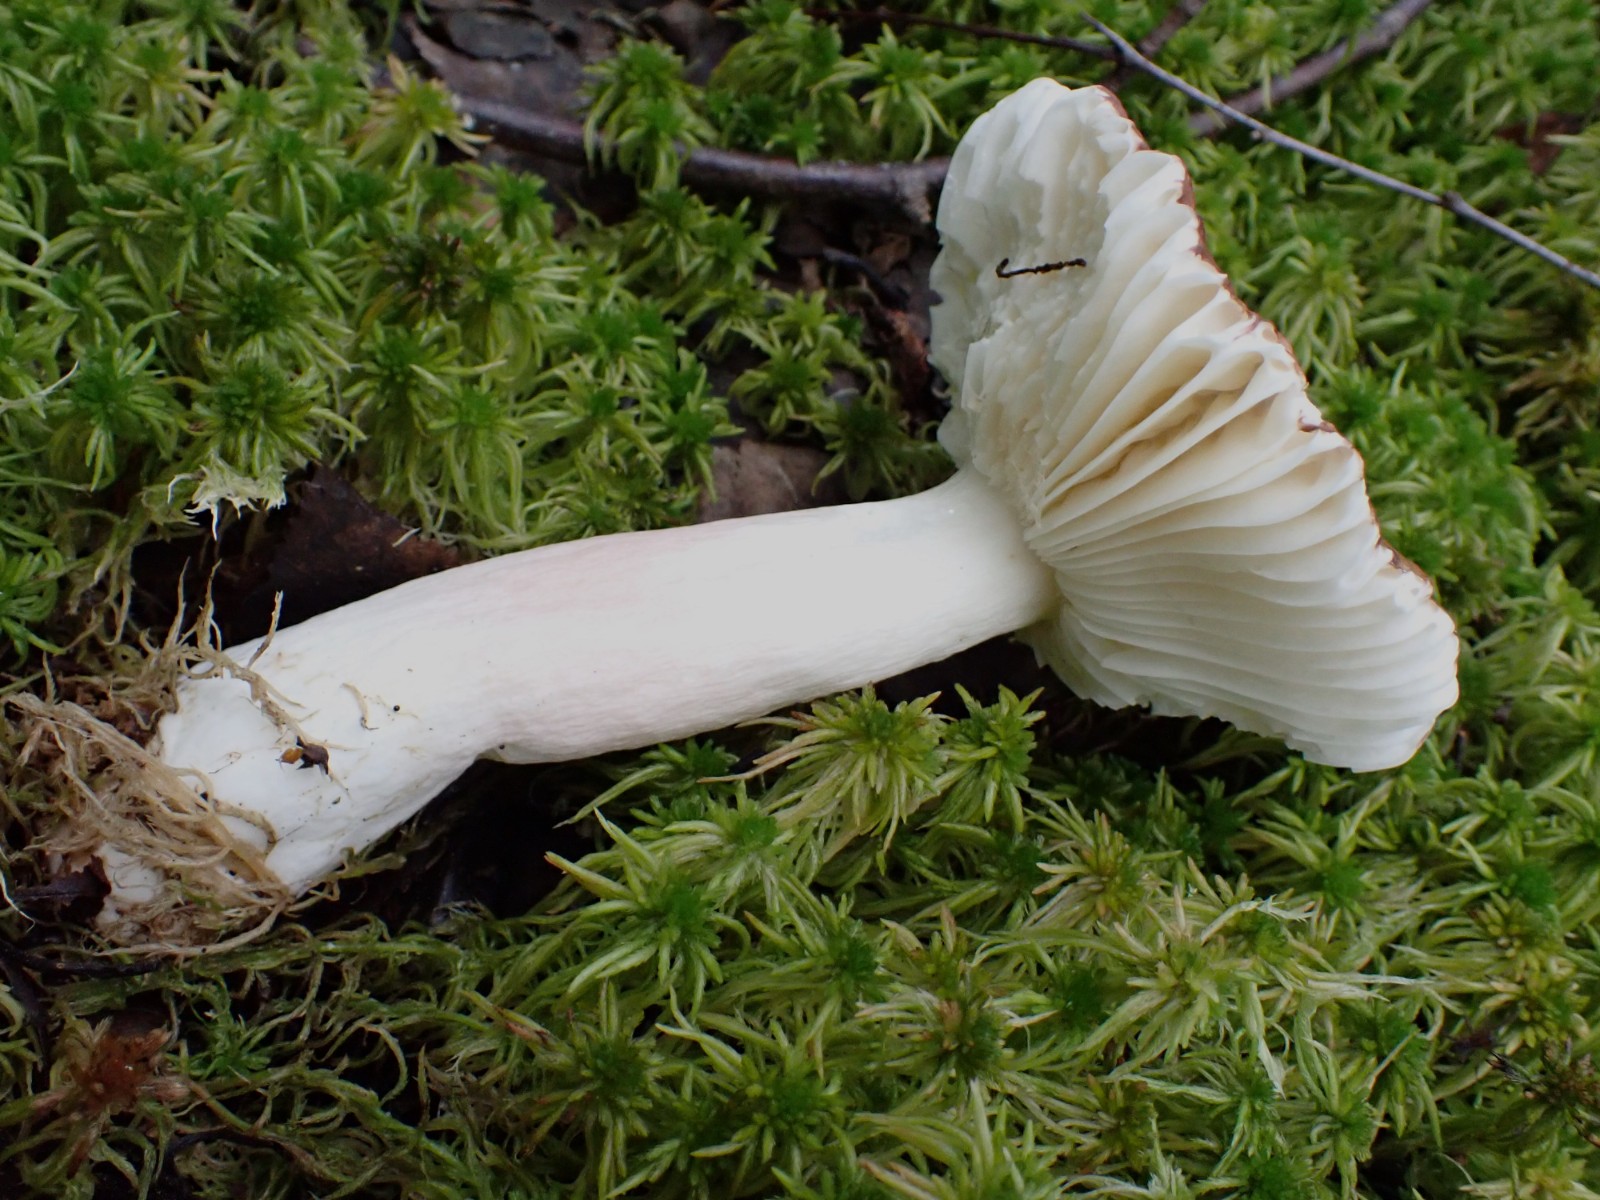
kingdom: Fungi
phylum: Basidiomycota
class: Agaricomycetes
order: Russulales
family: Russulaceae
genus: Russula
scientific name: Russula nitida
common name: året skørhat
